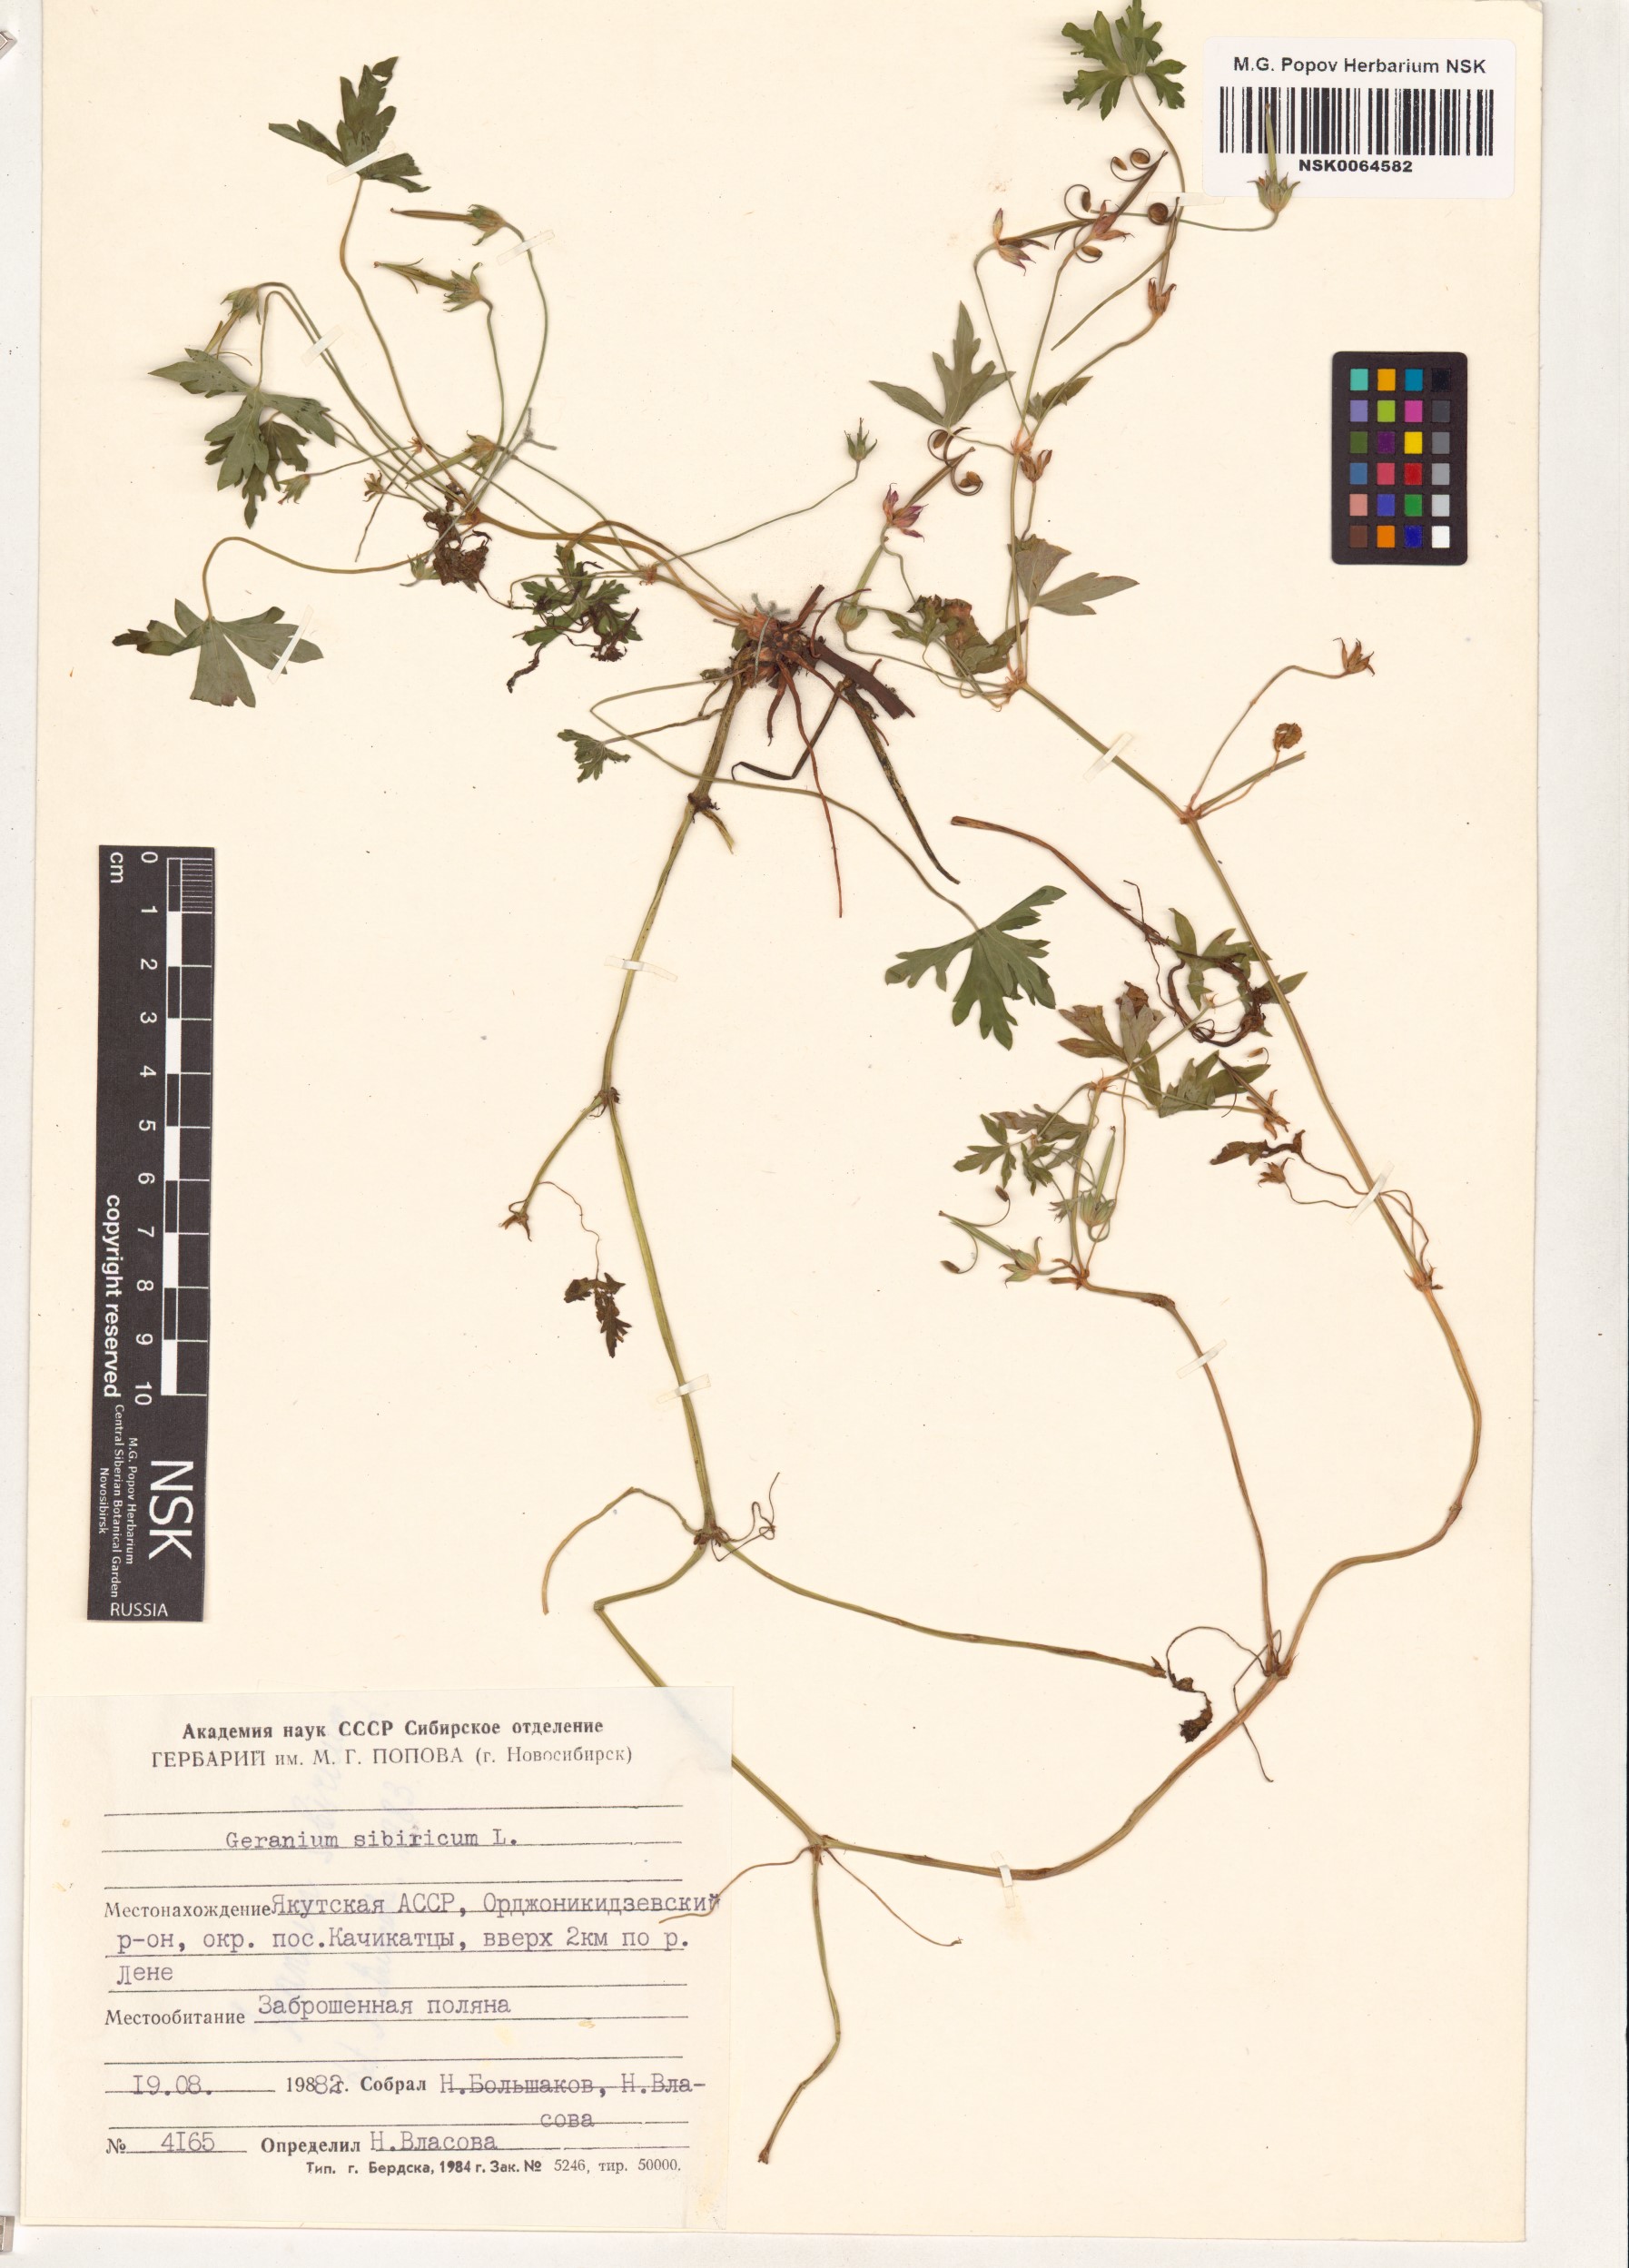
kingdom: Plantae
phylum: Tracheophyta
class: Magnoliopsida
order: Geraniales
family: Geraniaceae
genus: Geranium
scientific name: Geranium sibiricum
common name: Siberian crane's-bill
